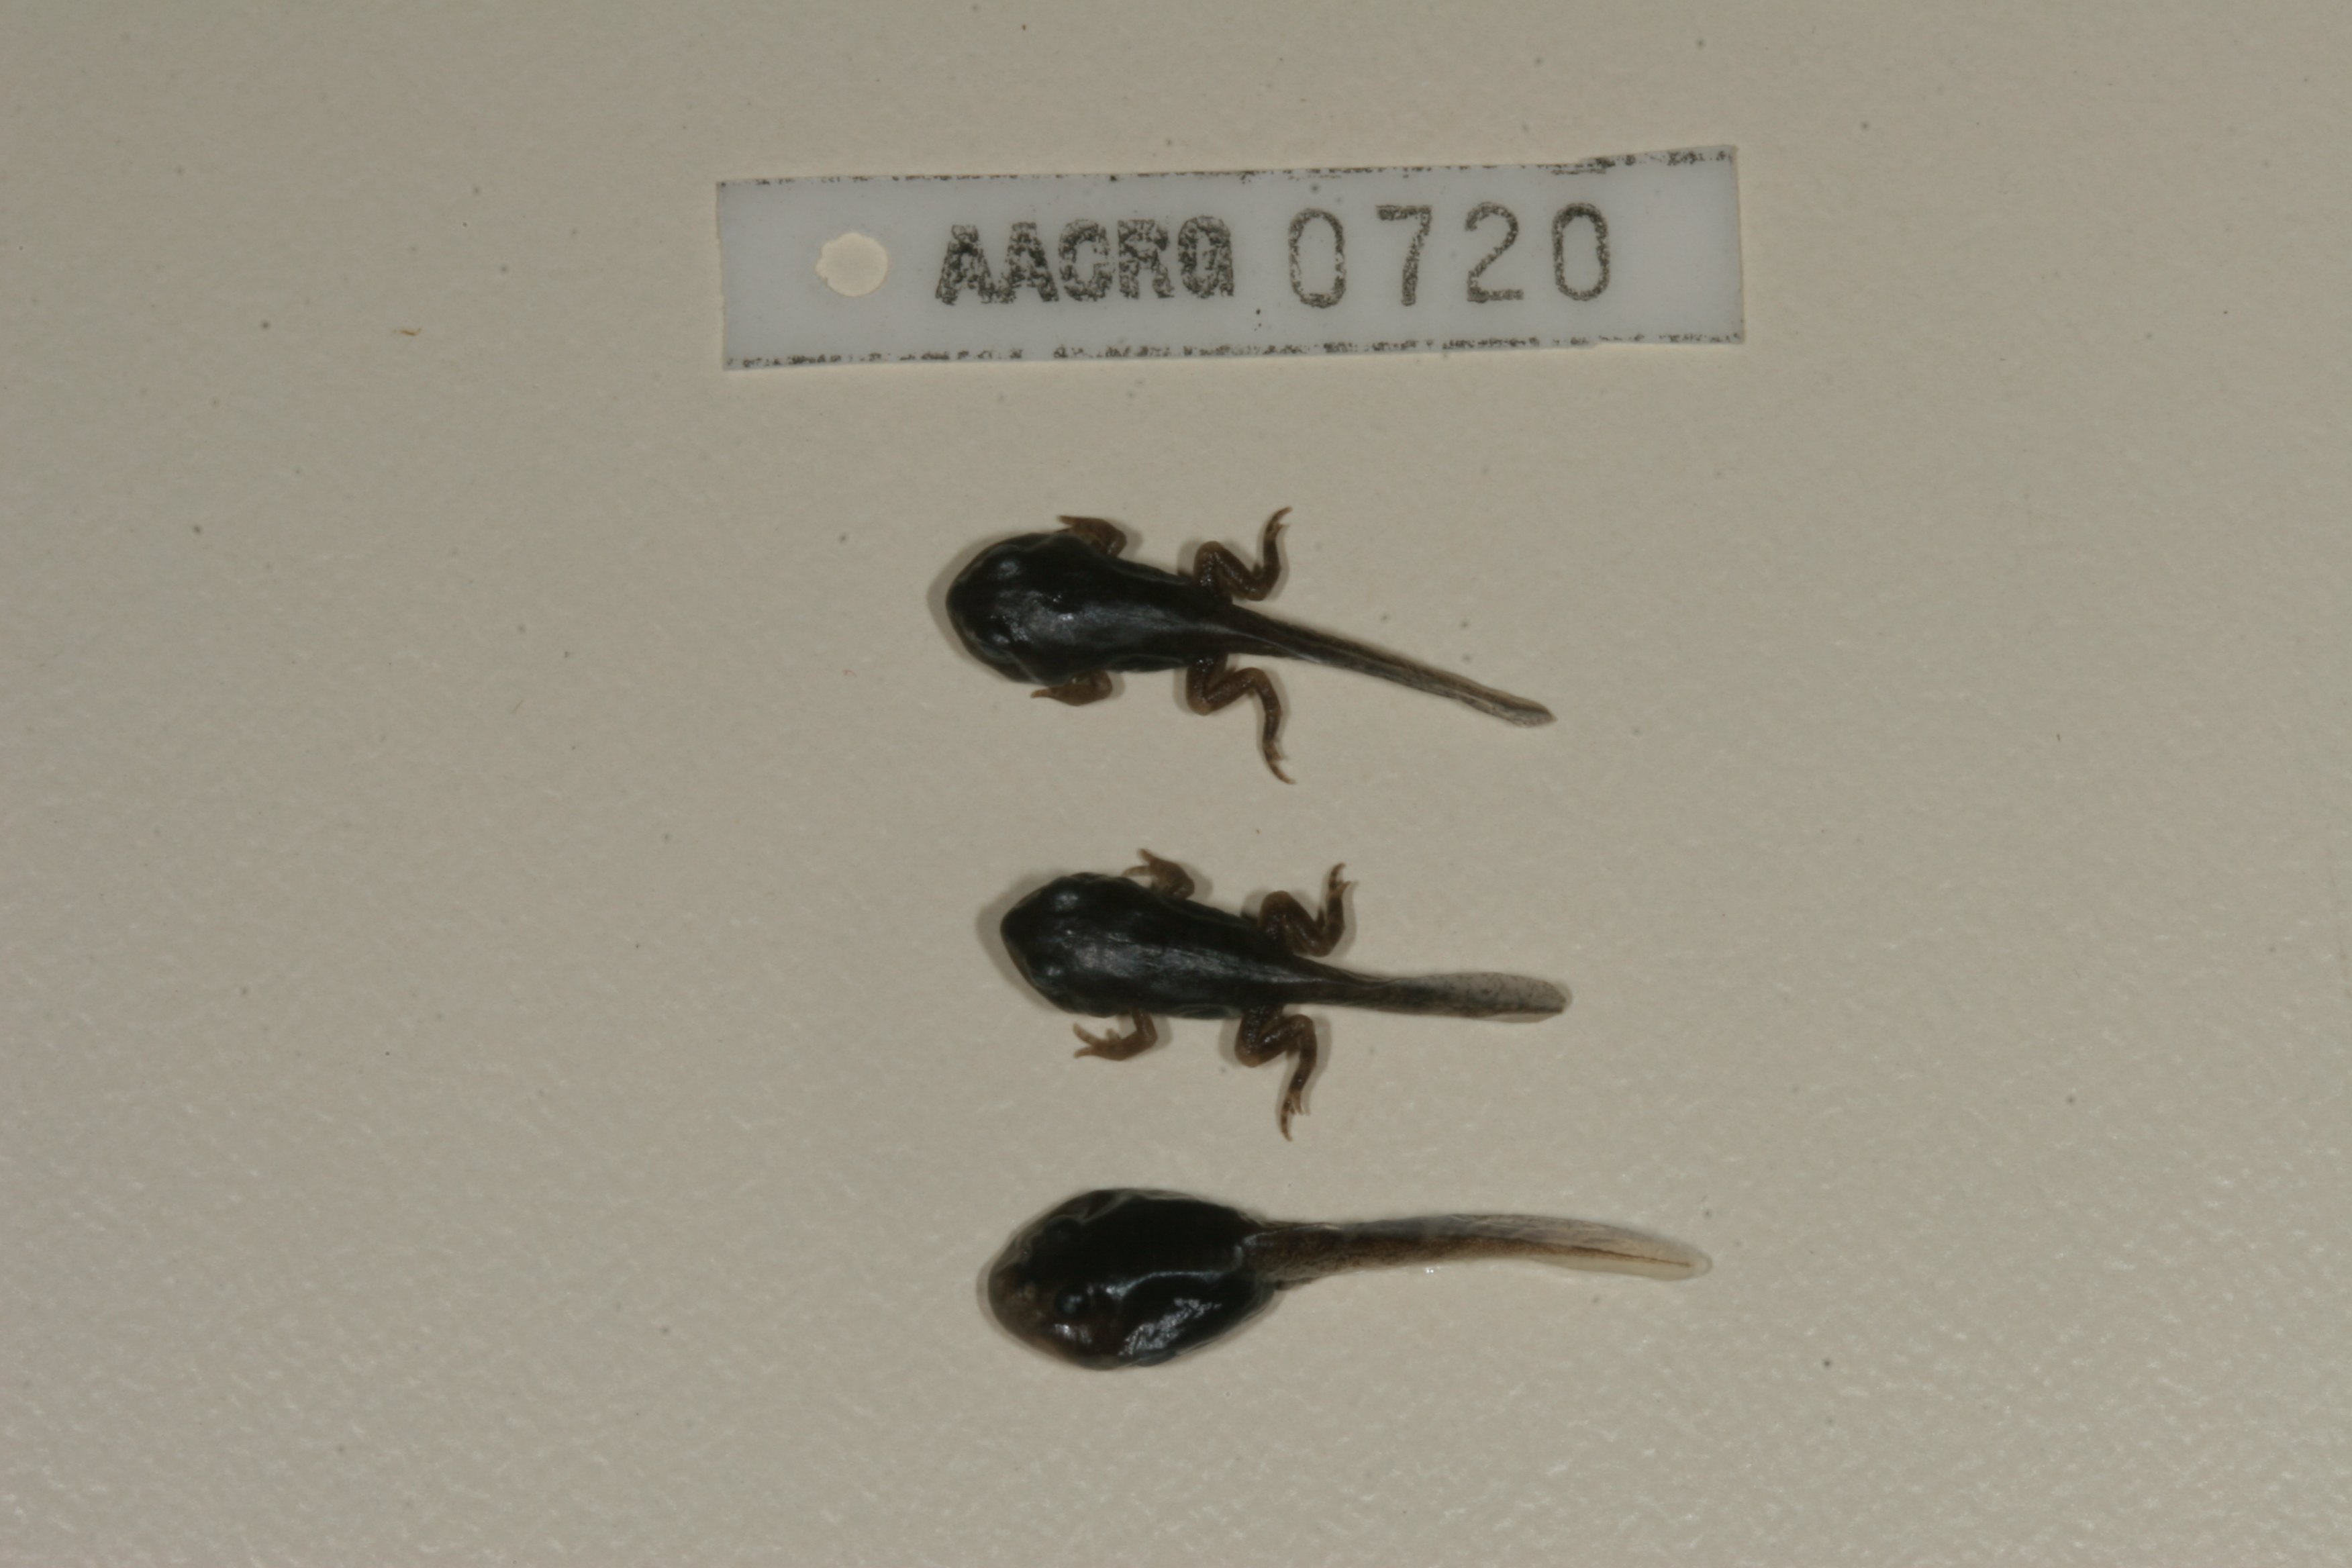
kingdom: Animalia
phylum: Chordata
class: Amphibia
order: Anura
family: Bufonidae
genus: Sclerophrys
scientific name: Sclerophrys garmani
